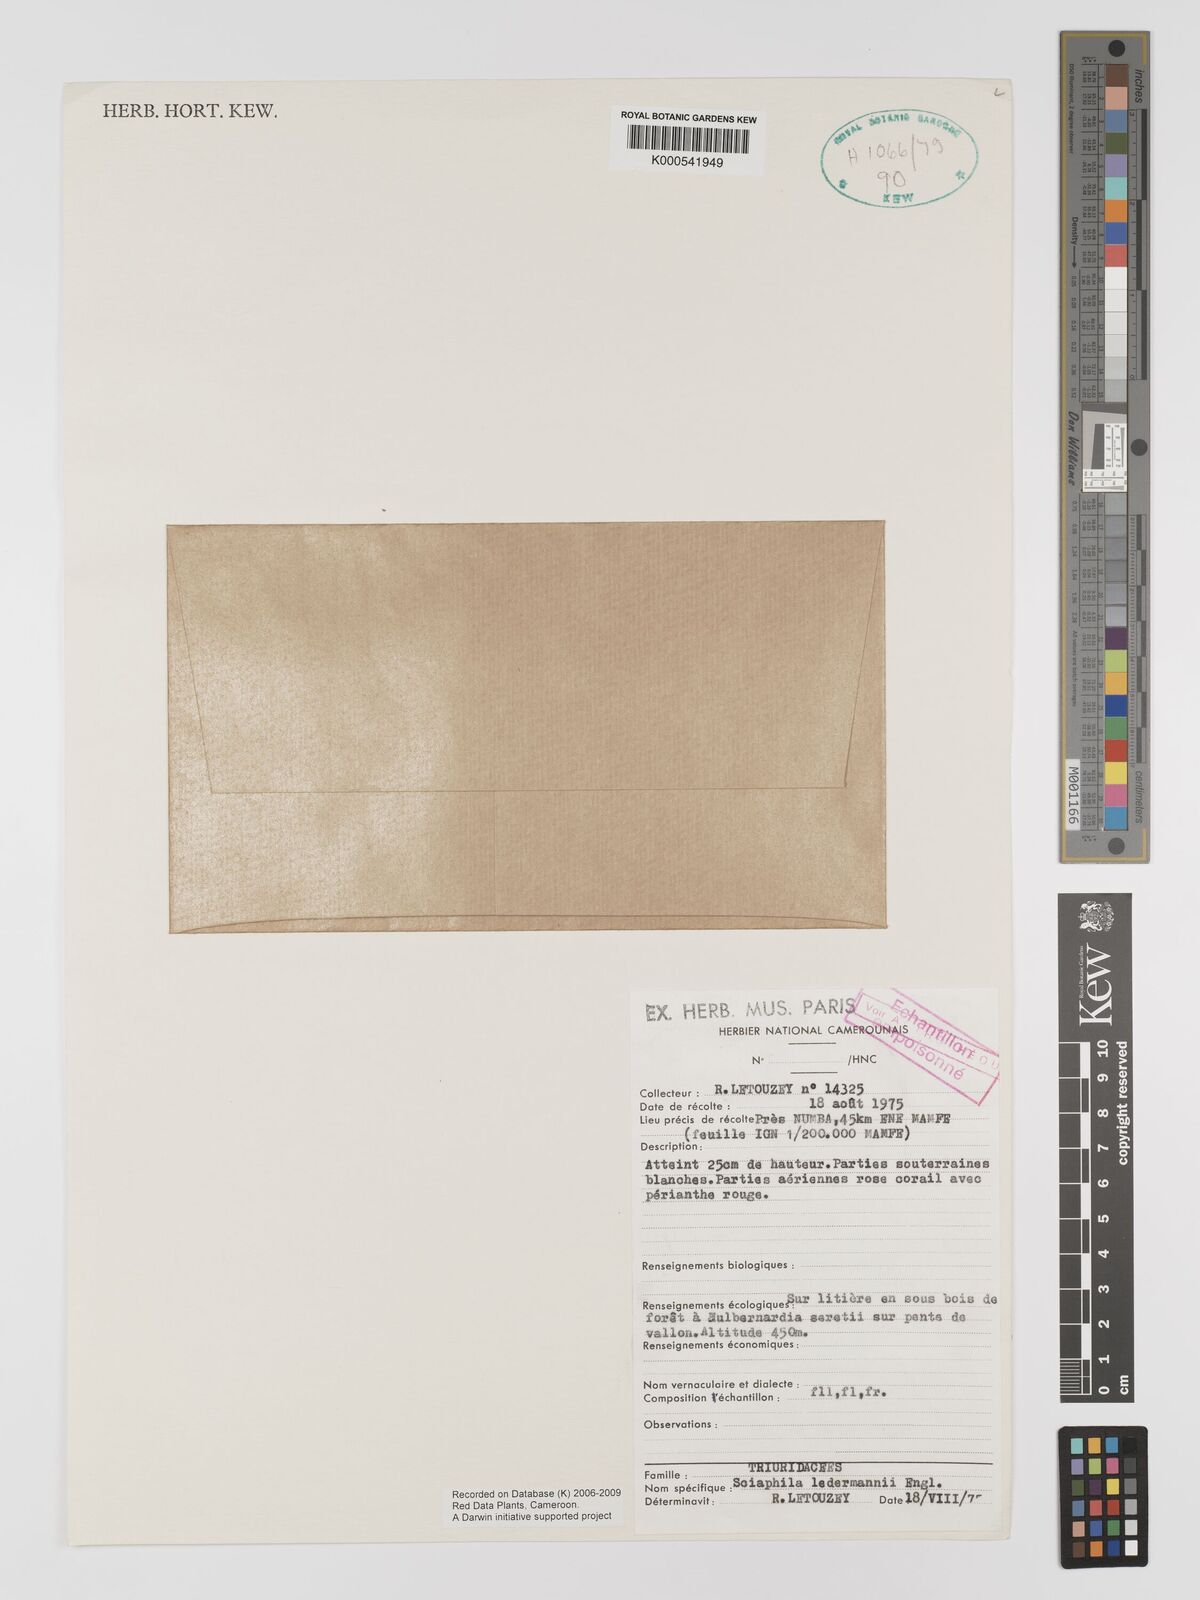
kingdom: Plantae
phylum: Tracheophyta
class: Liliopsida
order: Pandanales
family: Triuridaceae
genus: Sciaphila
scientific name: Sciaphila ledermannii
